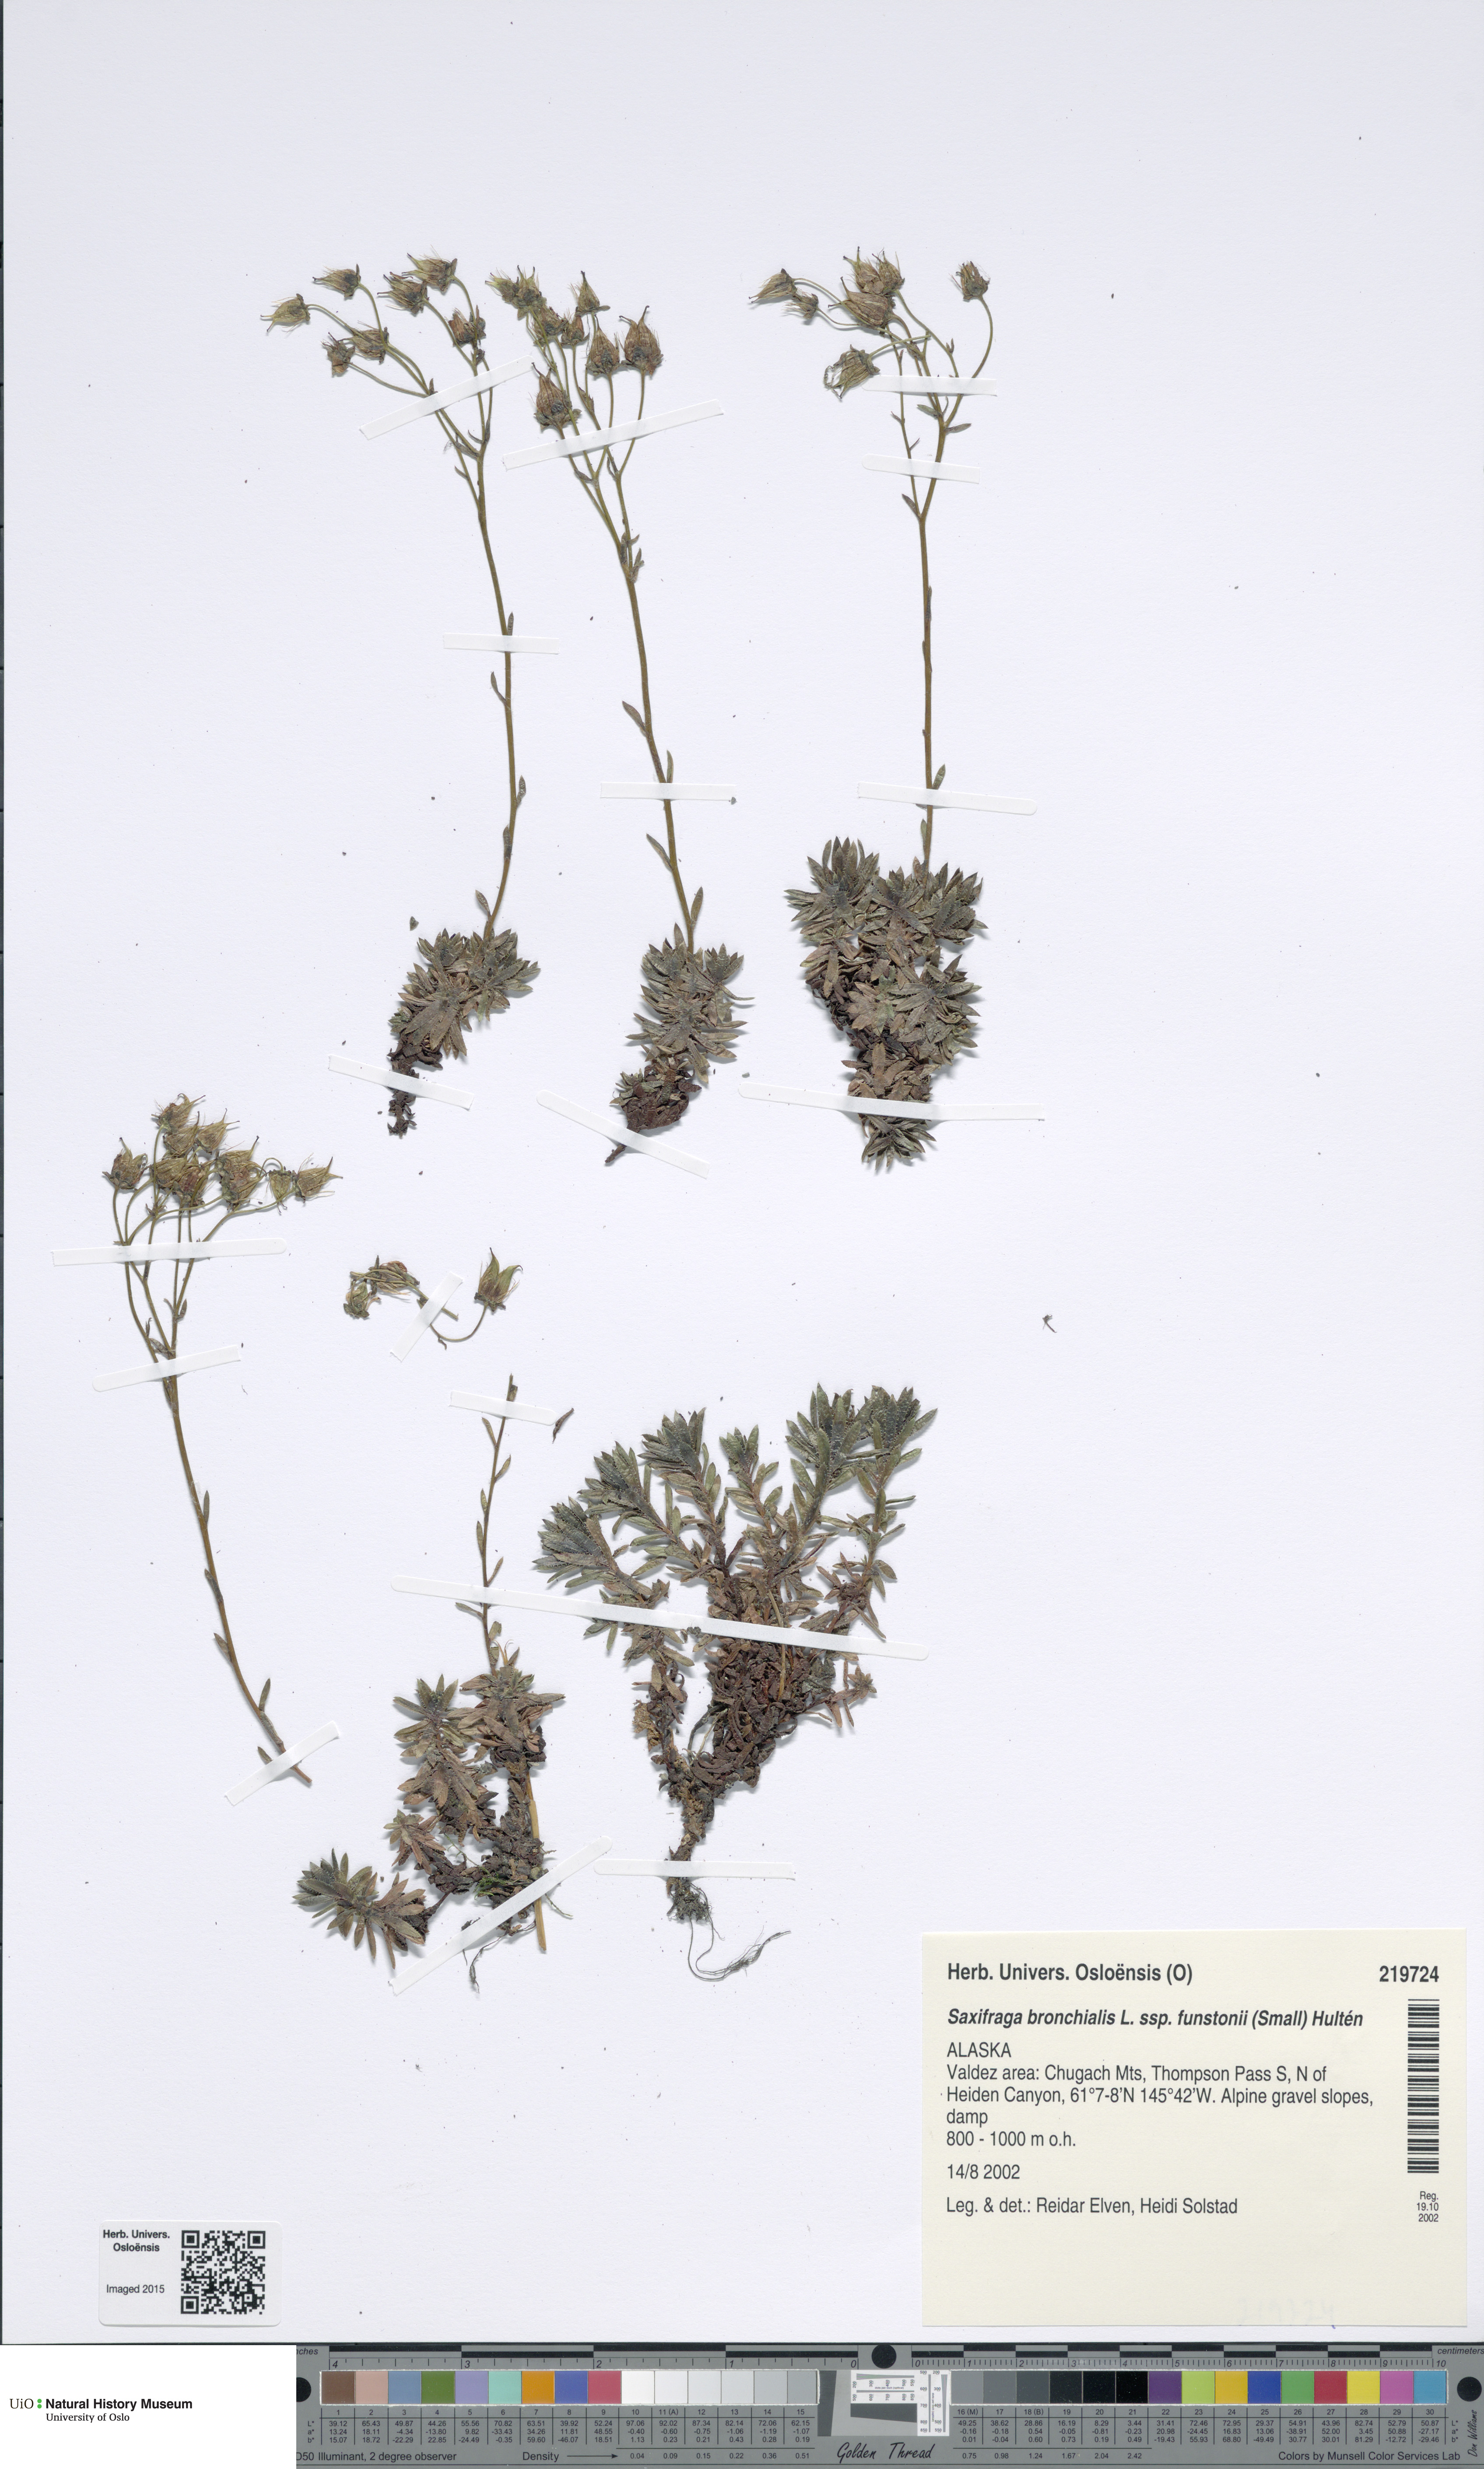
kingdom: Plantae
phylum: Tracheophyta
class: Magnoliopsida
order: Saxifragales
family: Saxifragaceae
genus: Saxifraga
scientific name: Saxifraga bronchialis
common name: Matted saxifrage
